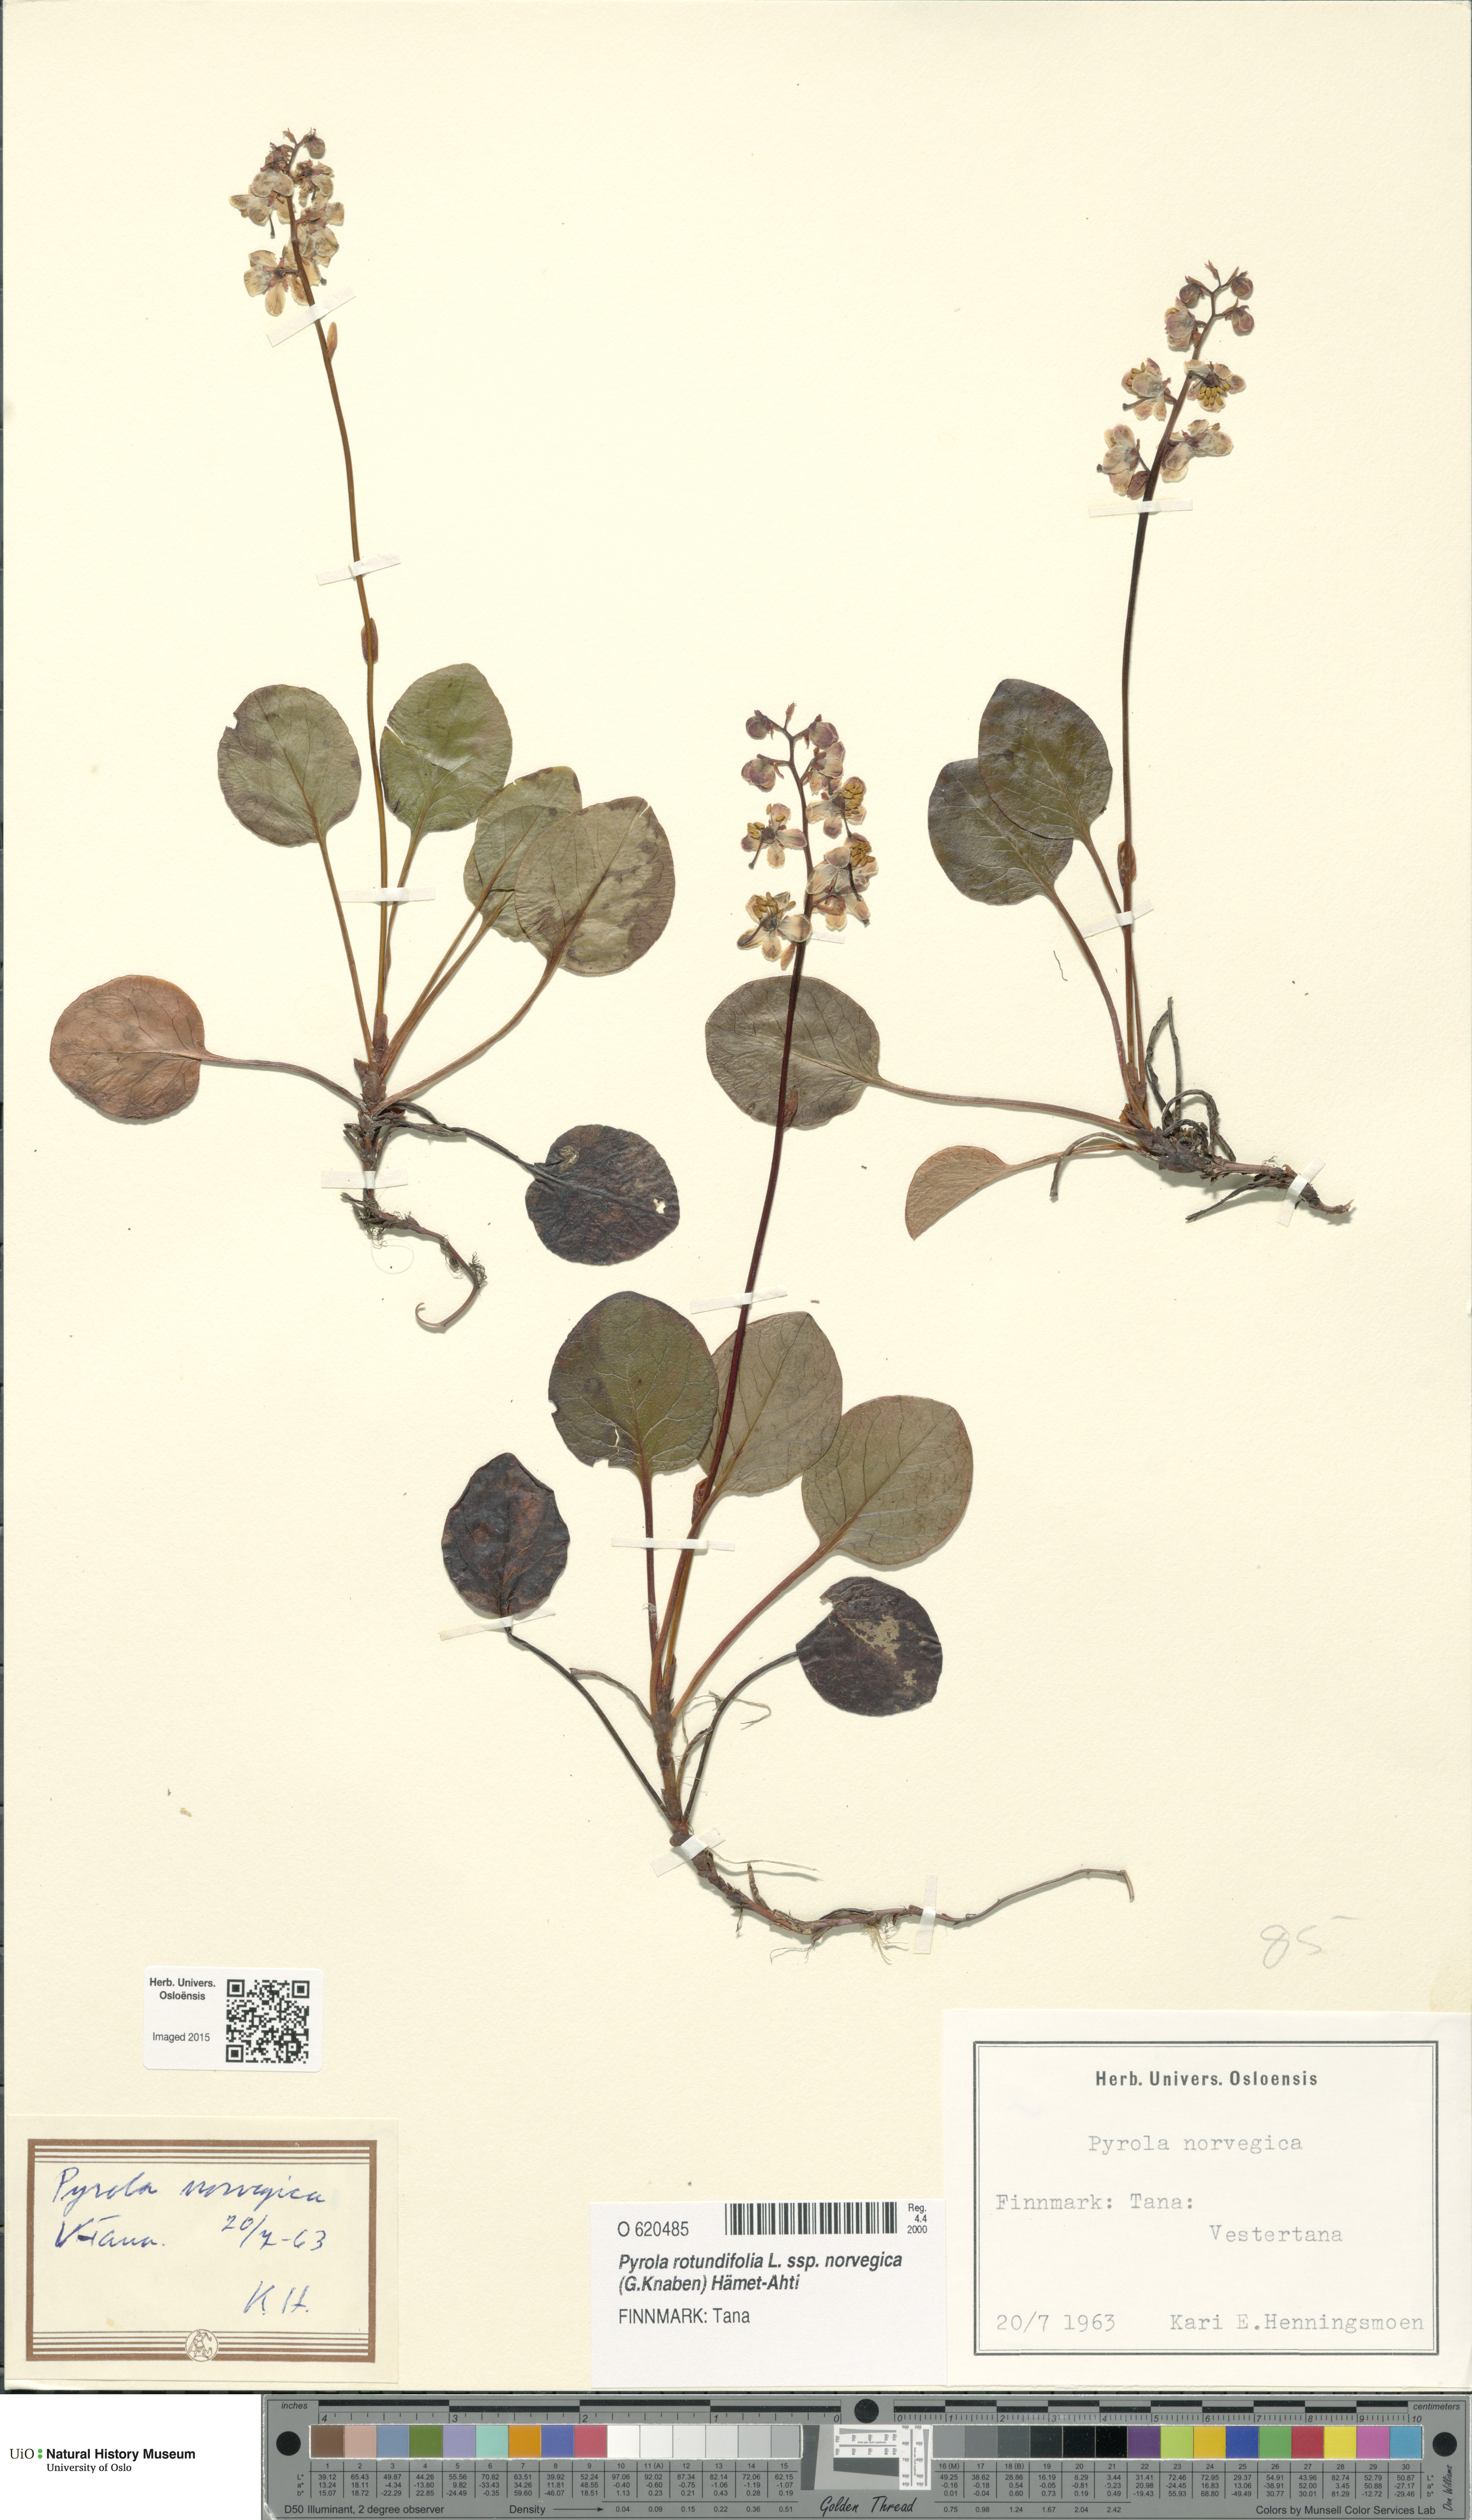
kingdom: Plantae
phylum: Tracheophyta
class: Magnoliopsida
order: Ericales
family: Ericaceae
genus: Pyrola
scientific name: Pyrola rotundifolia
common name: Round-leaved wintergreen
